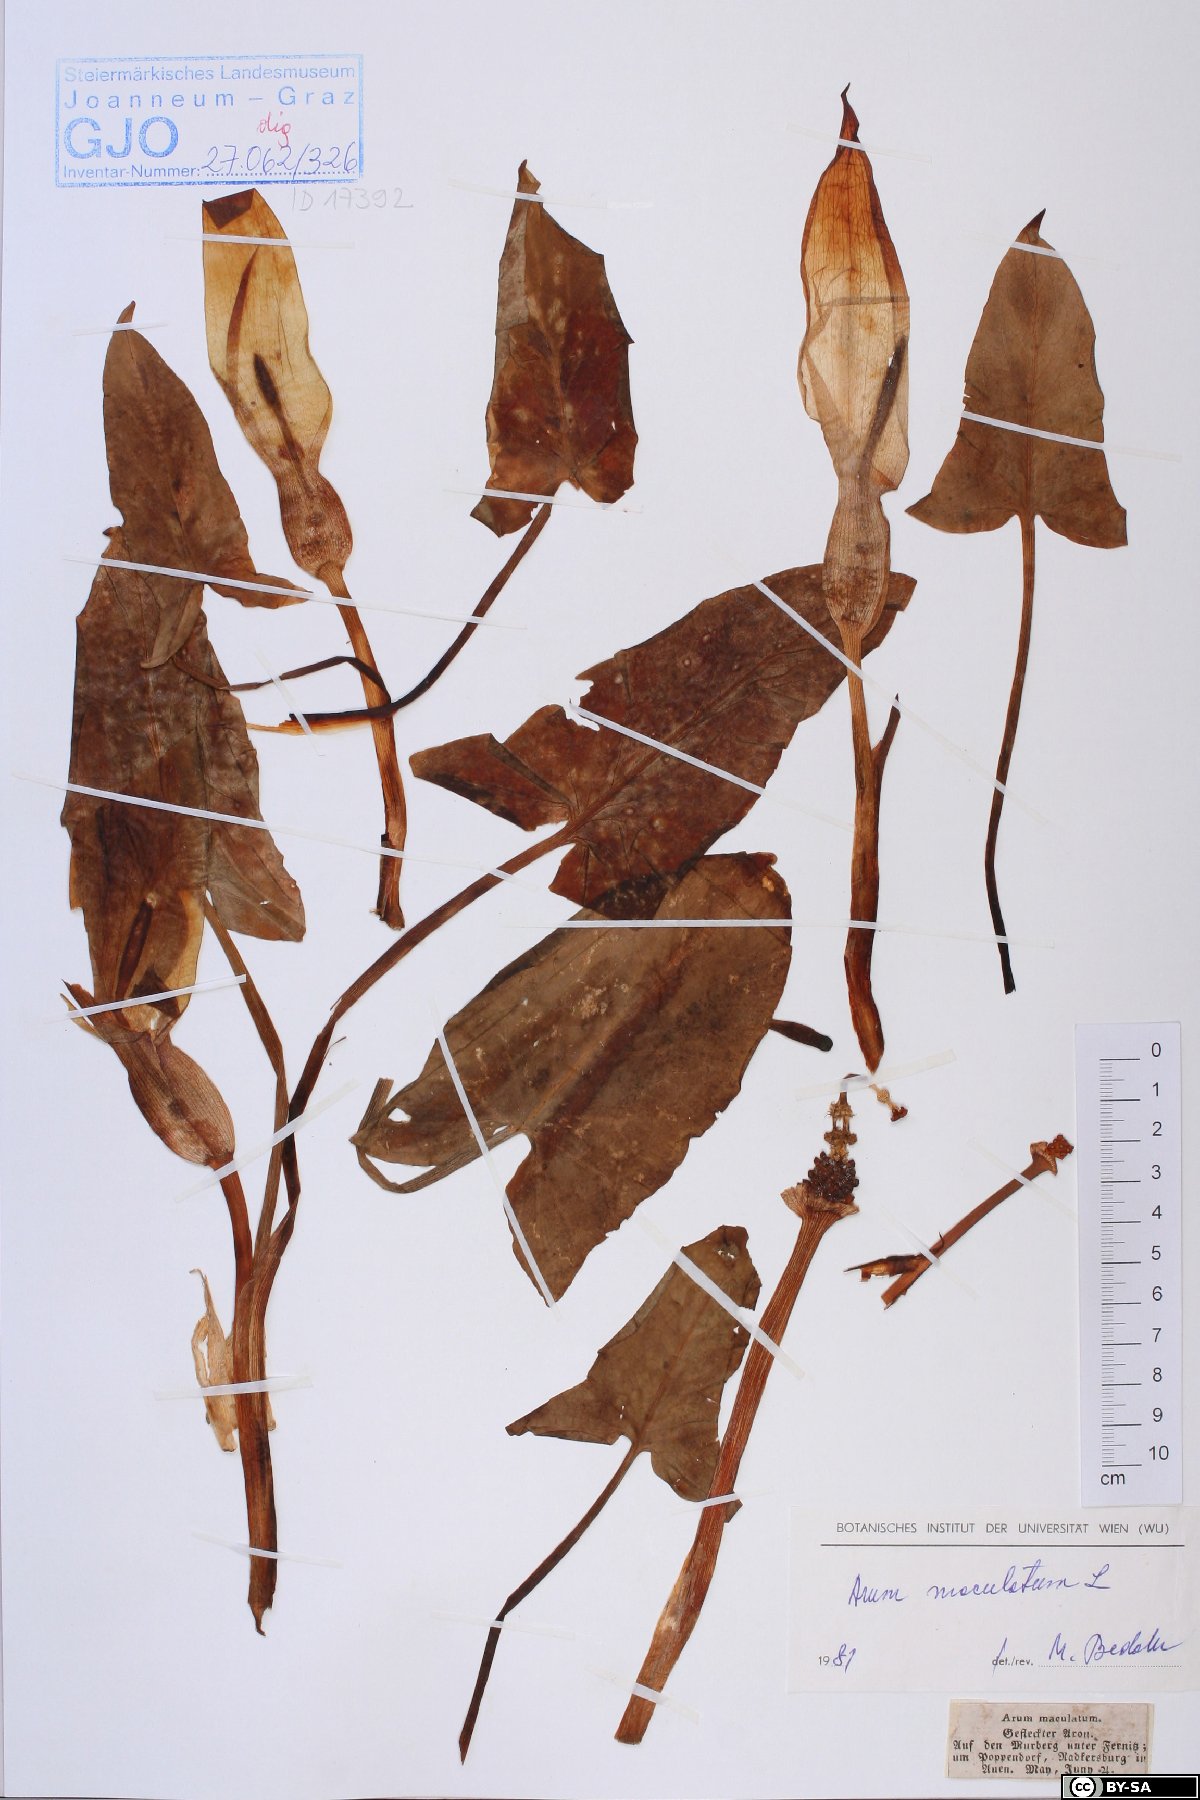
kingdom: Plantae
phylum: Tracheophyta
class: Liliopsida
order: Alismatales
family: Araceae
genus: Arum
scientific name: Arum maculatum
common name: Lords-and-ladies
